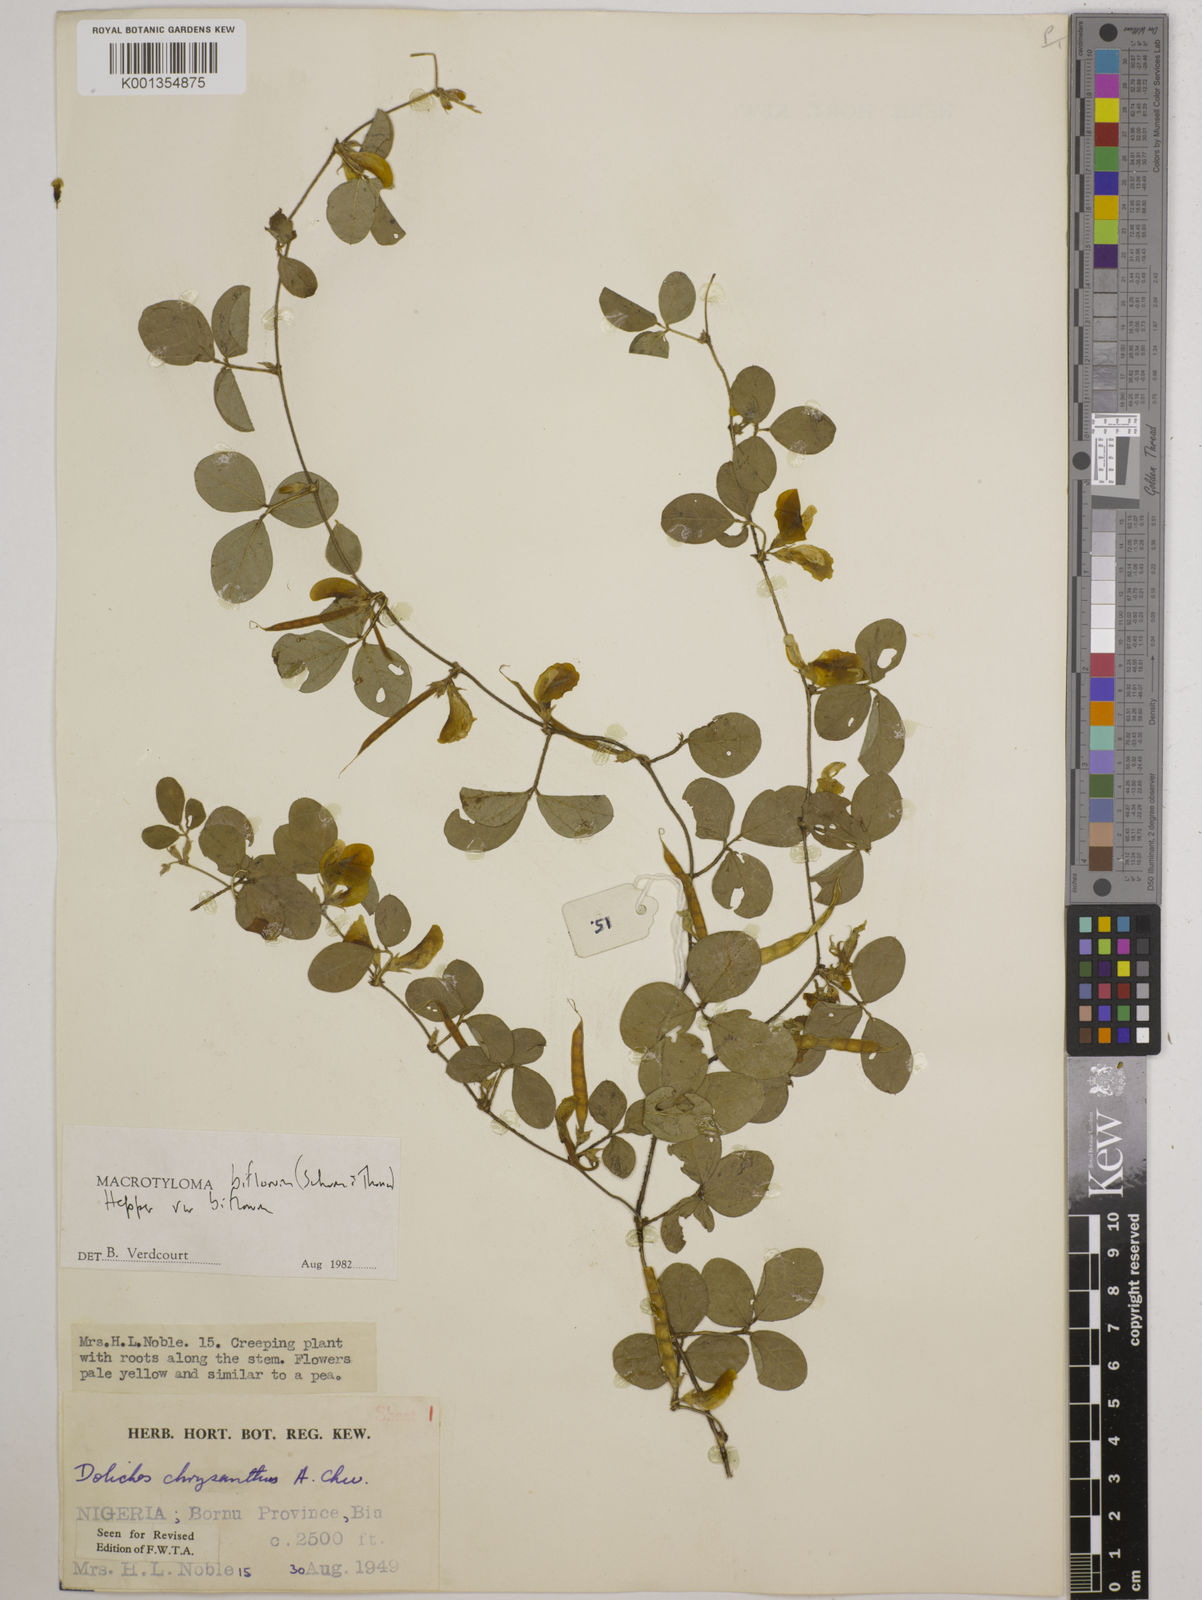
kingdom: Plantae
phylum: Tracheophyta
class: Magnoliopsida
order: Fabales
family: Fabaceae
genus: Macrotyloma
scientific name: Macrotyloma biflorum
